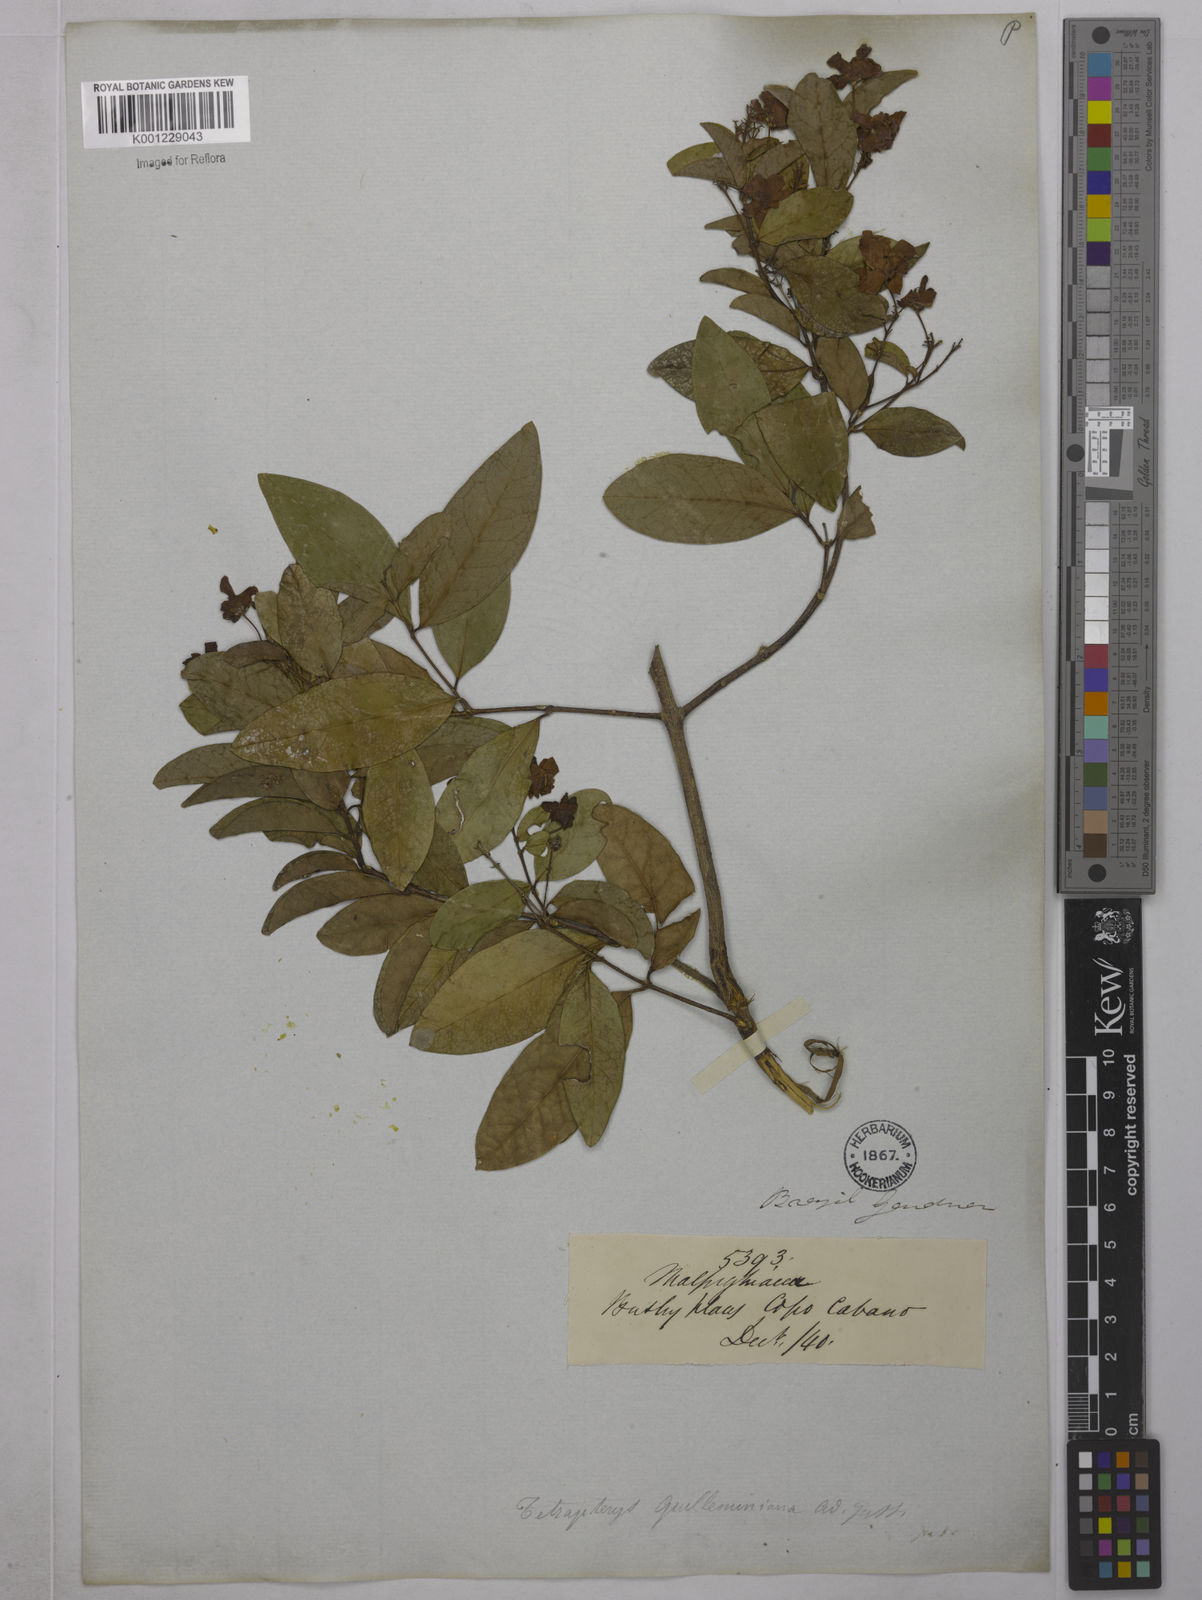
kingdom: Plantae
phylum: Tracheophyta
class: Magnoliopsida
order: Malpighiales
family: Malpighiaceae
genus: Niedenzuella
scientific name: Niedenzuella acutifolia
